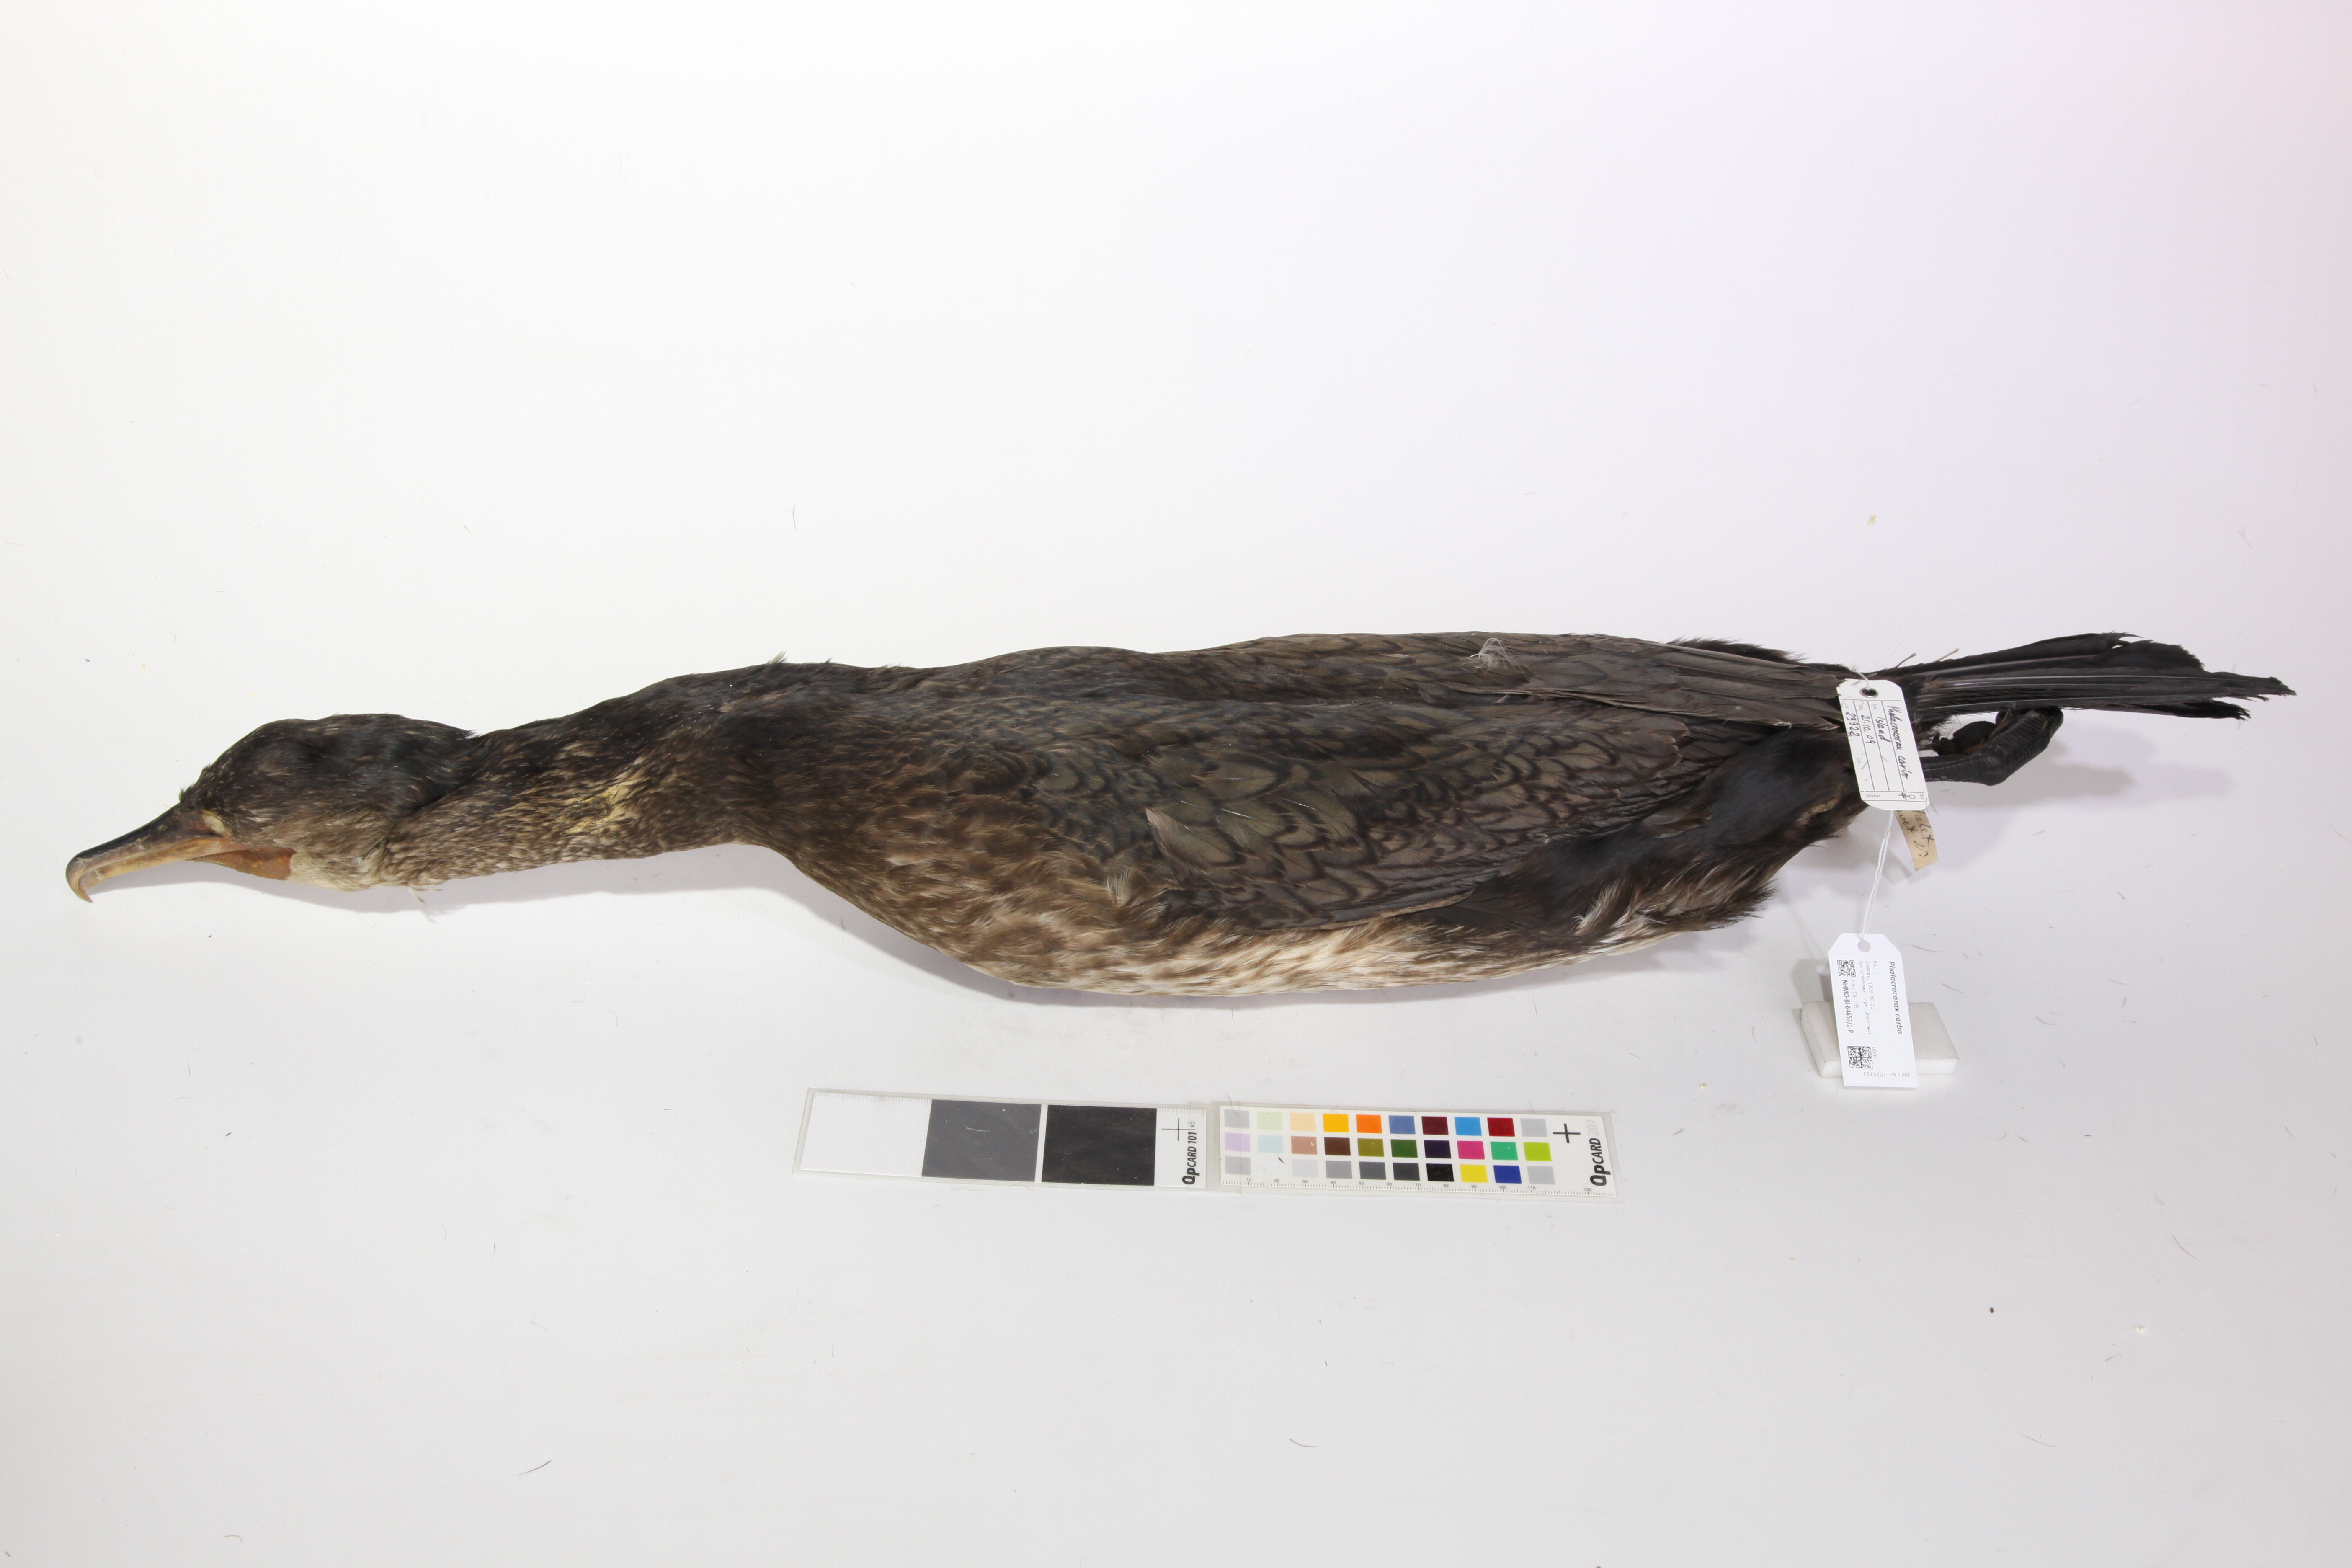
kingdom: Animalia
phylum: Chordata
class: Aves
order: Suliformes
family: Phalacrocoracidae
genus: Phalacrocorax
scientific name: Phalacrocorax carbo
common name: Great cormorant
